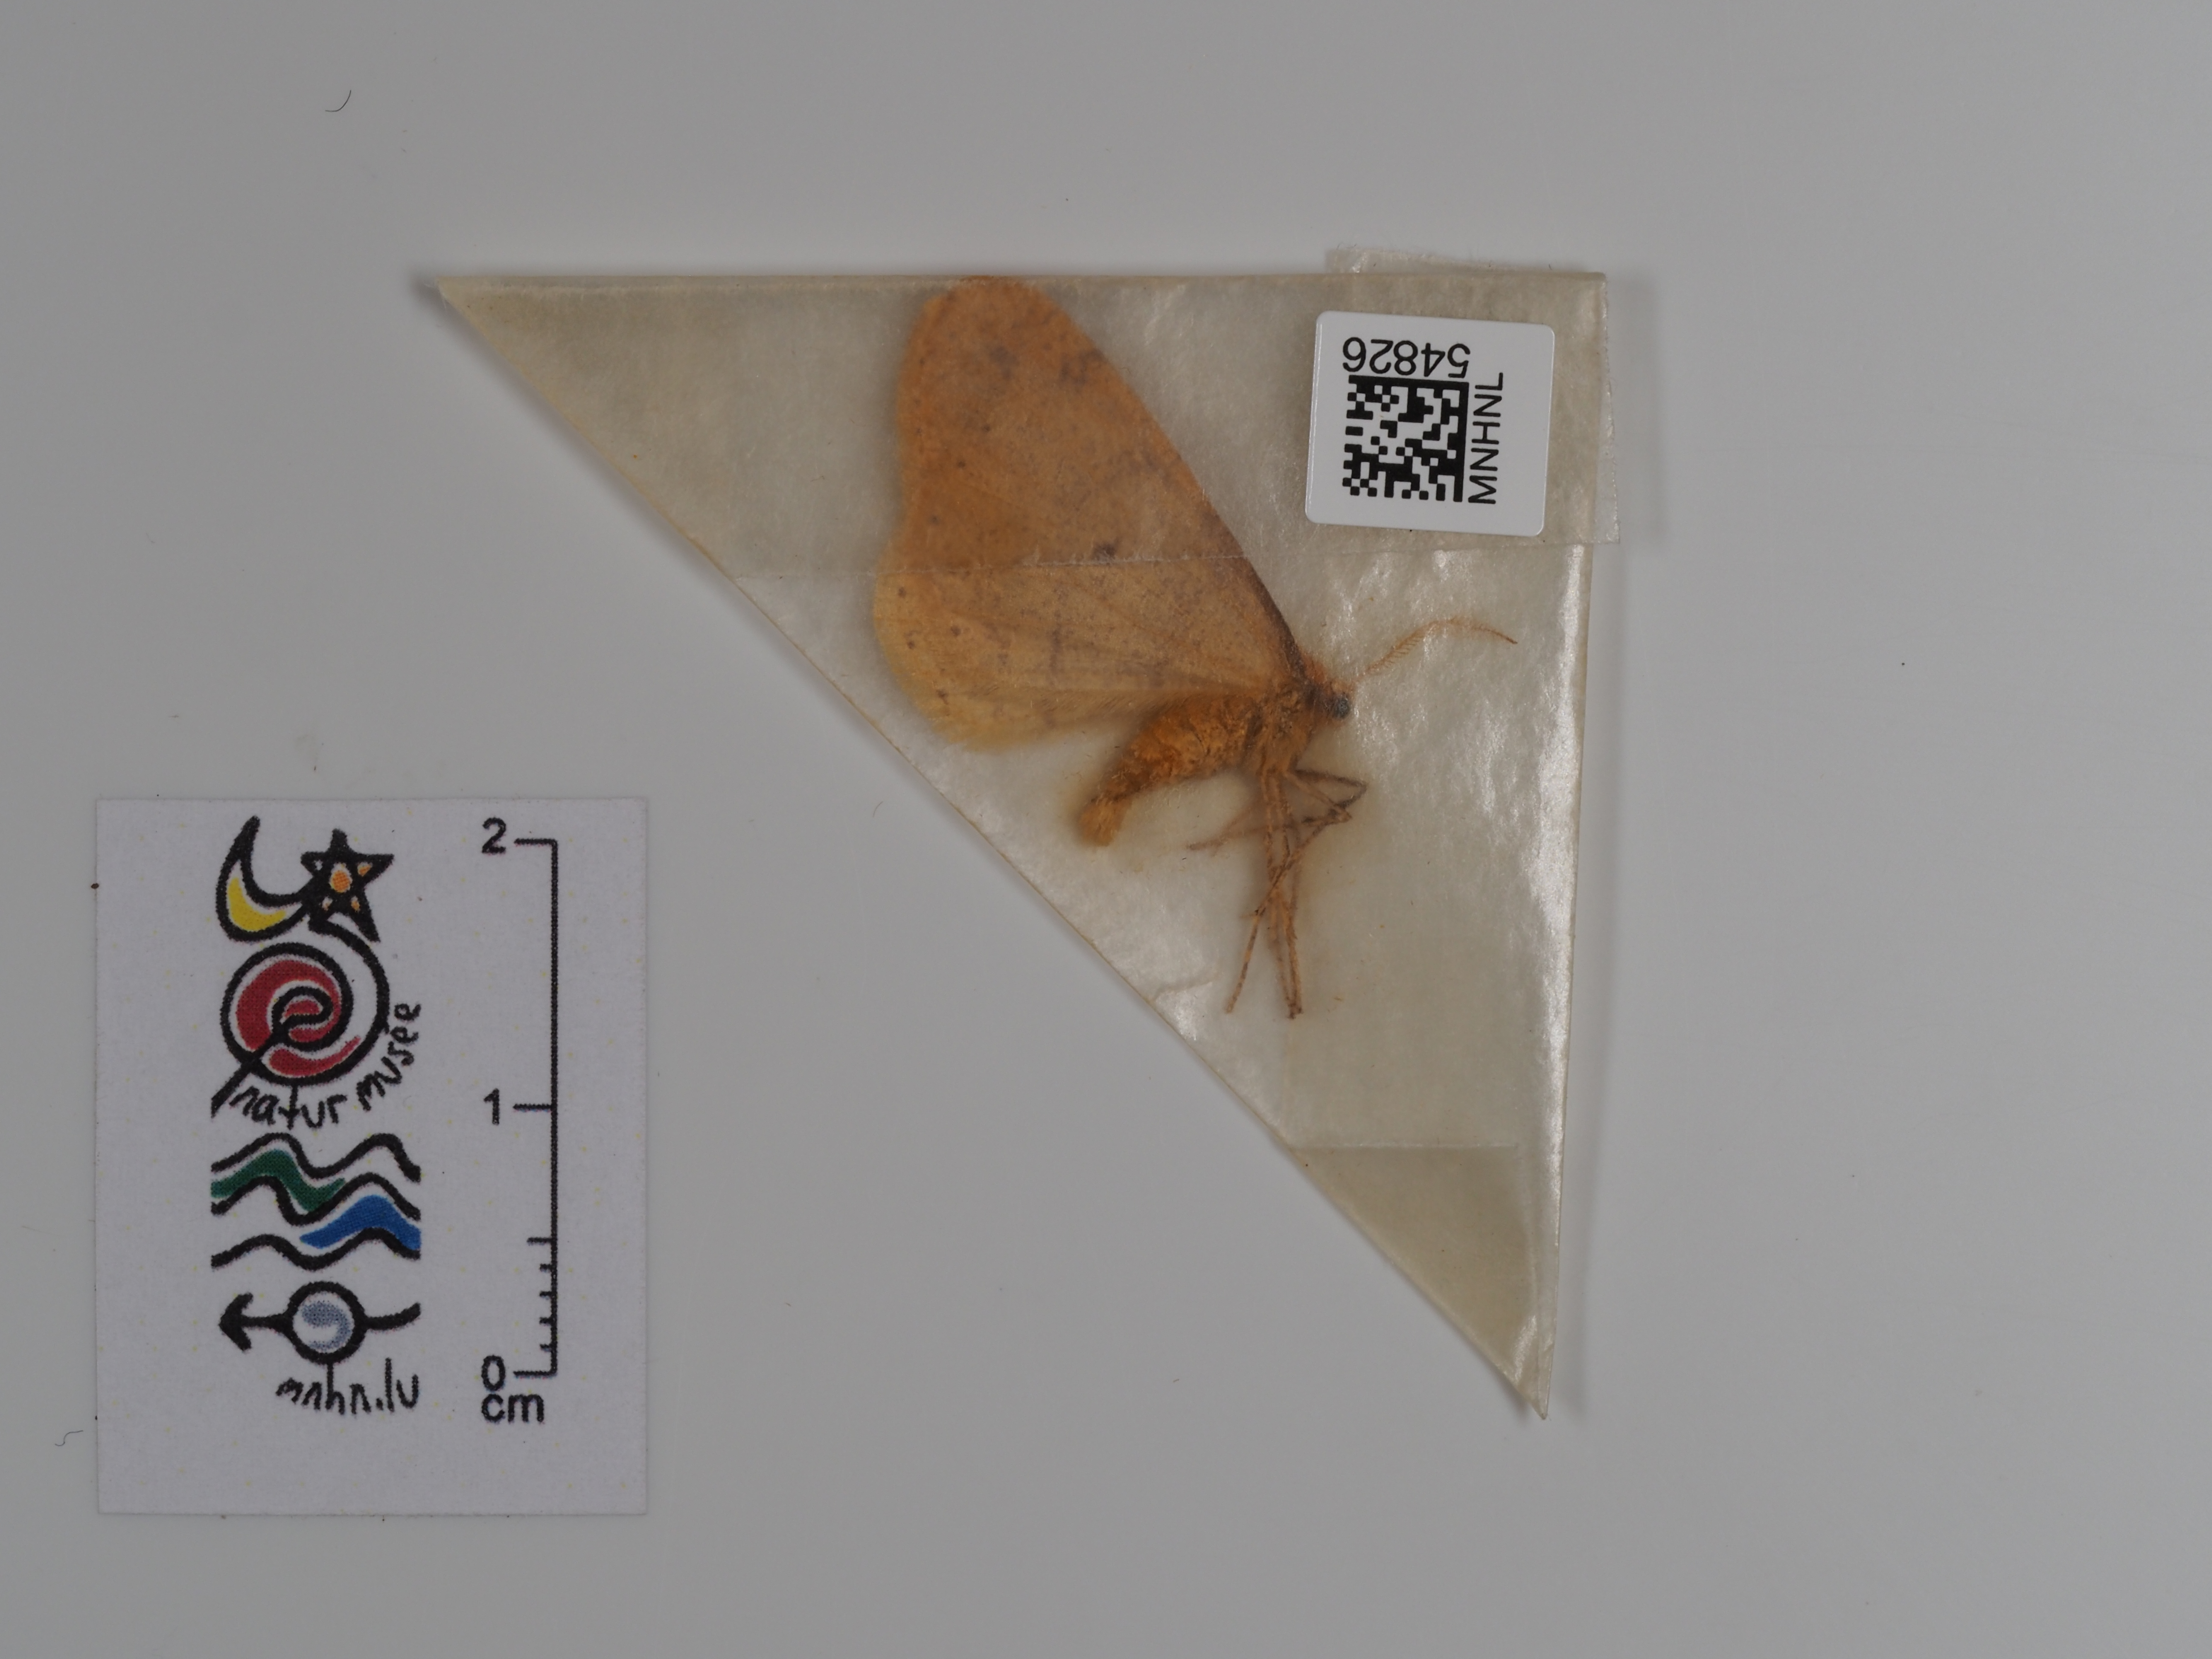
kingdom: Animalia
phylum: Arthropoda
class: Insecta
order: Lepidoptera
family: Geometridae
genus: Agriopis
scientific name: Agriopis aurantiaria
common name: Scarce umber
